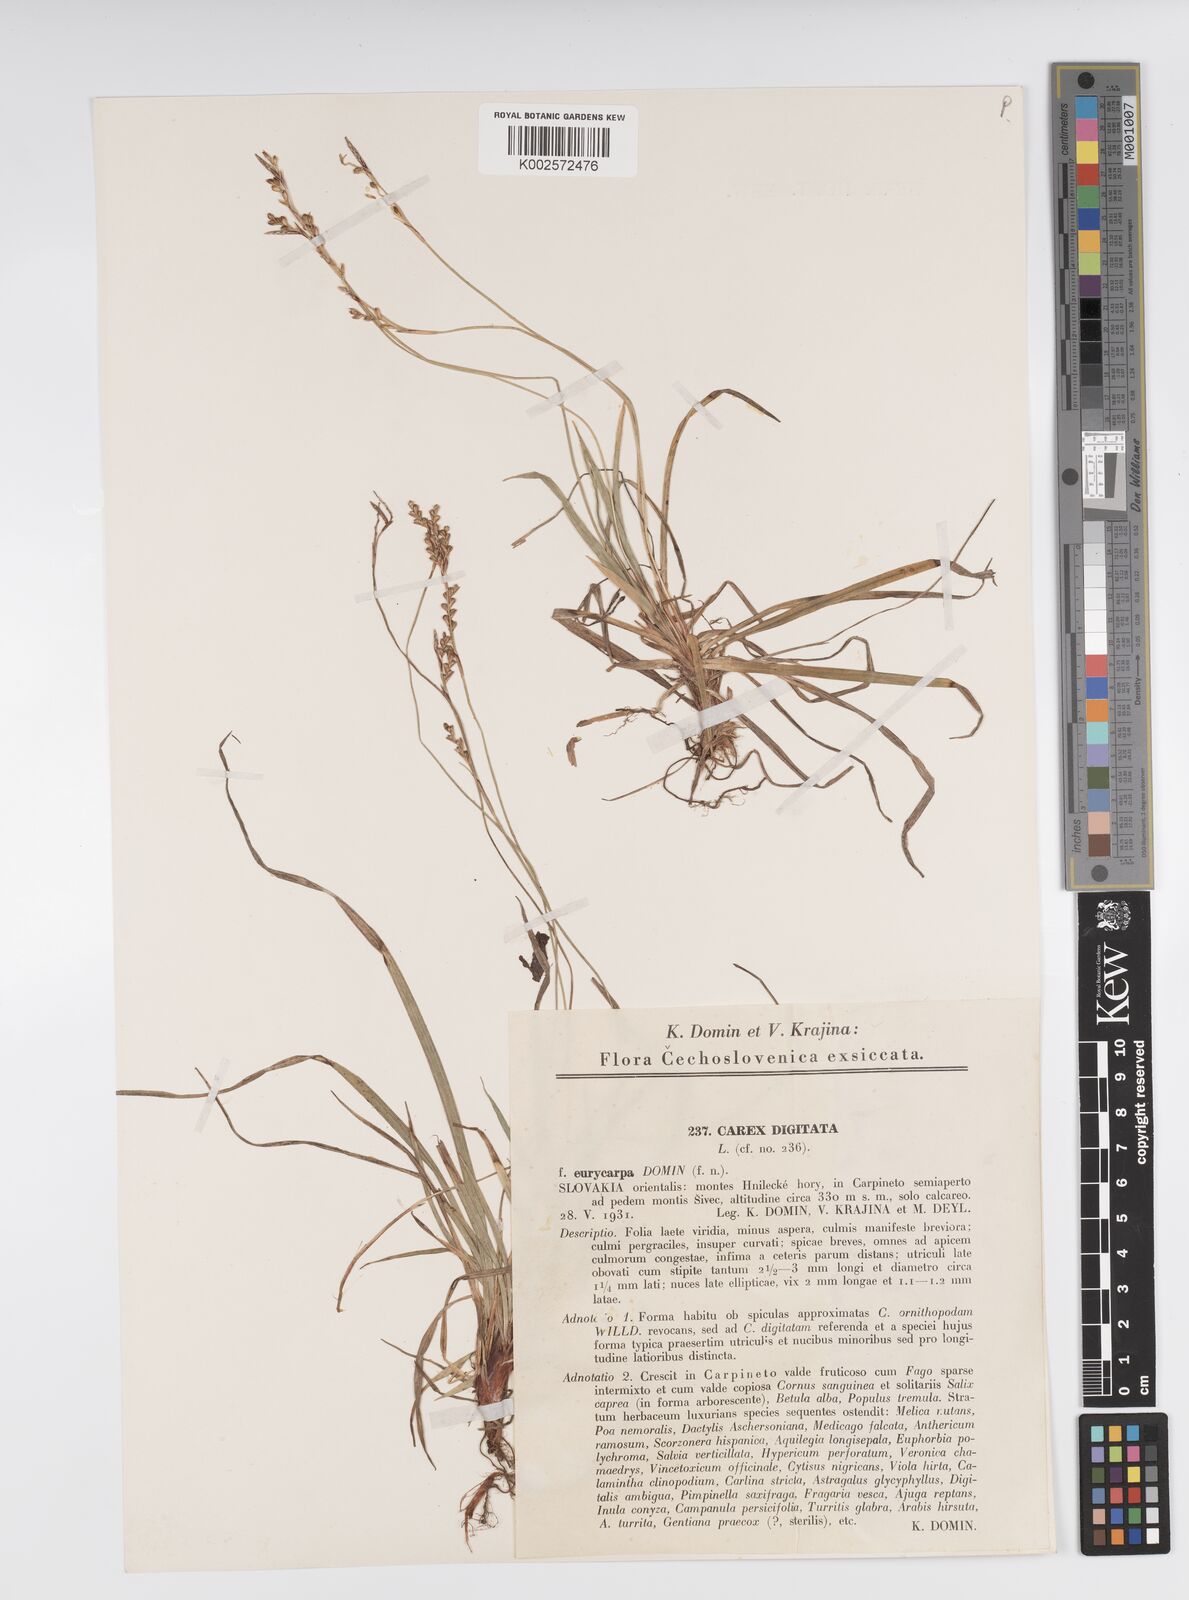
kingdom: Plantae
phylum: Tracheophyta
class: Liliopsida
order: Poales
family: Cyperaceae
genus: Carex
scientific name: Carex digitata
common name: Fingered sedge
